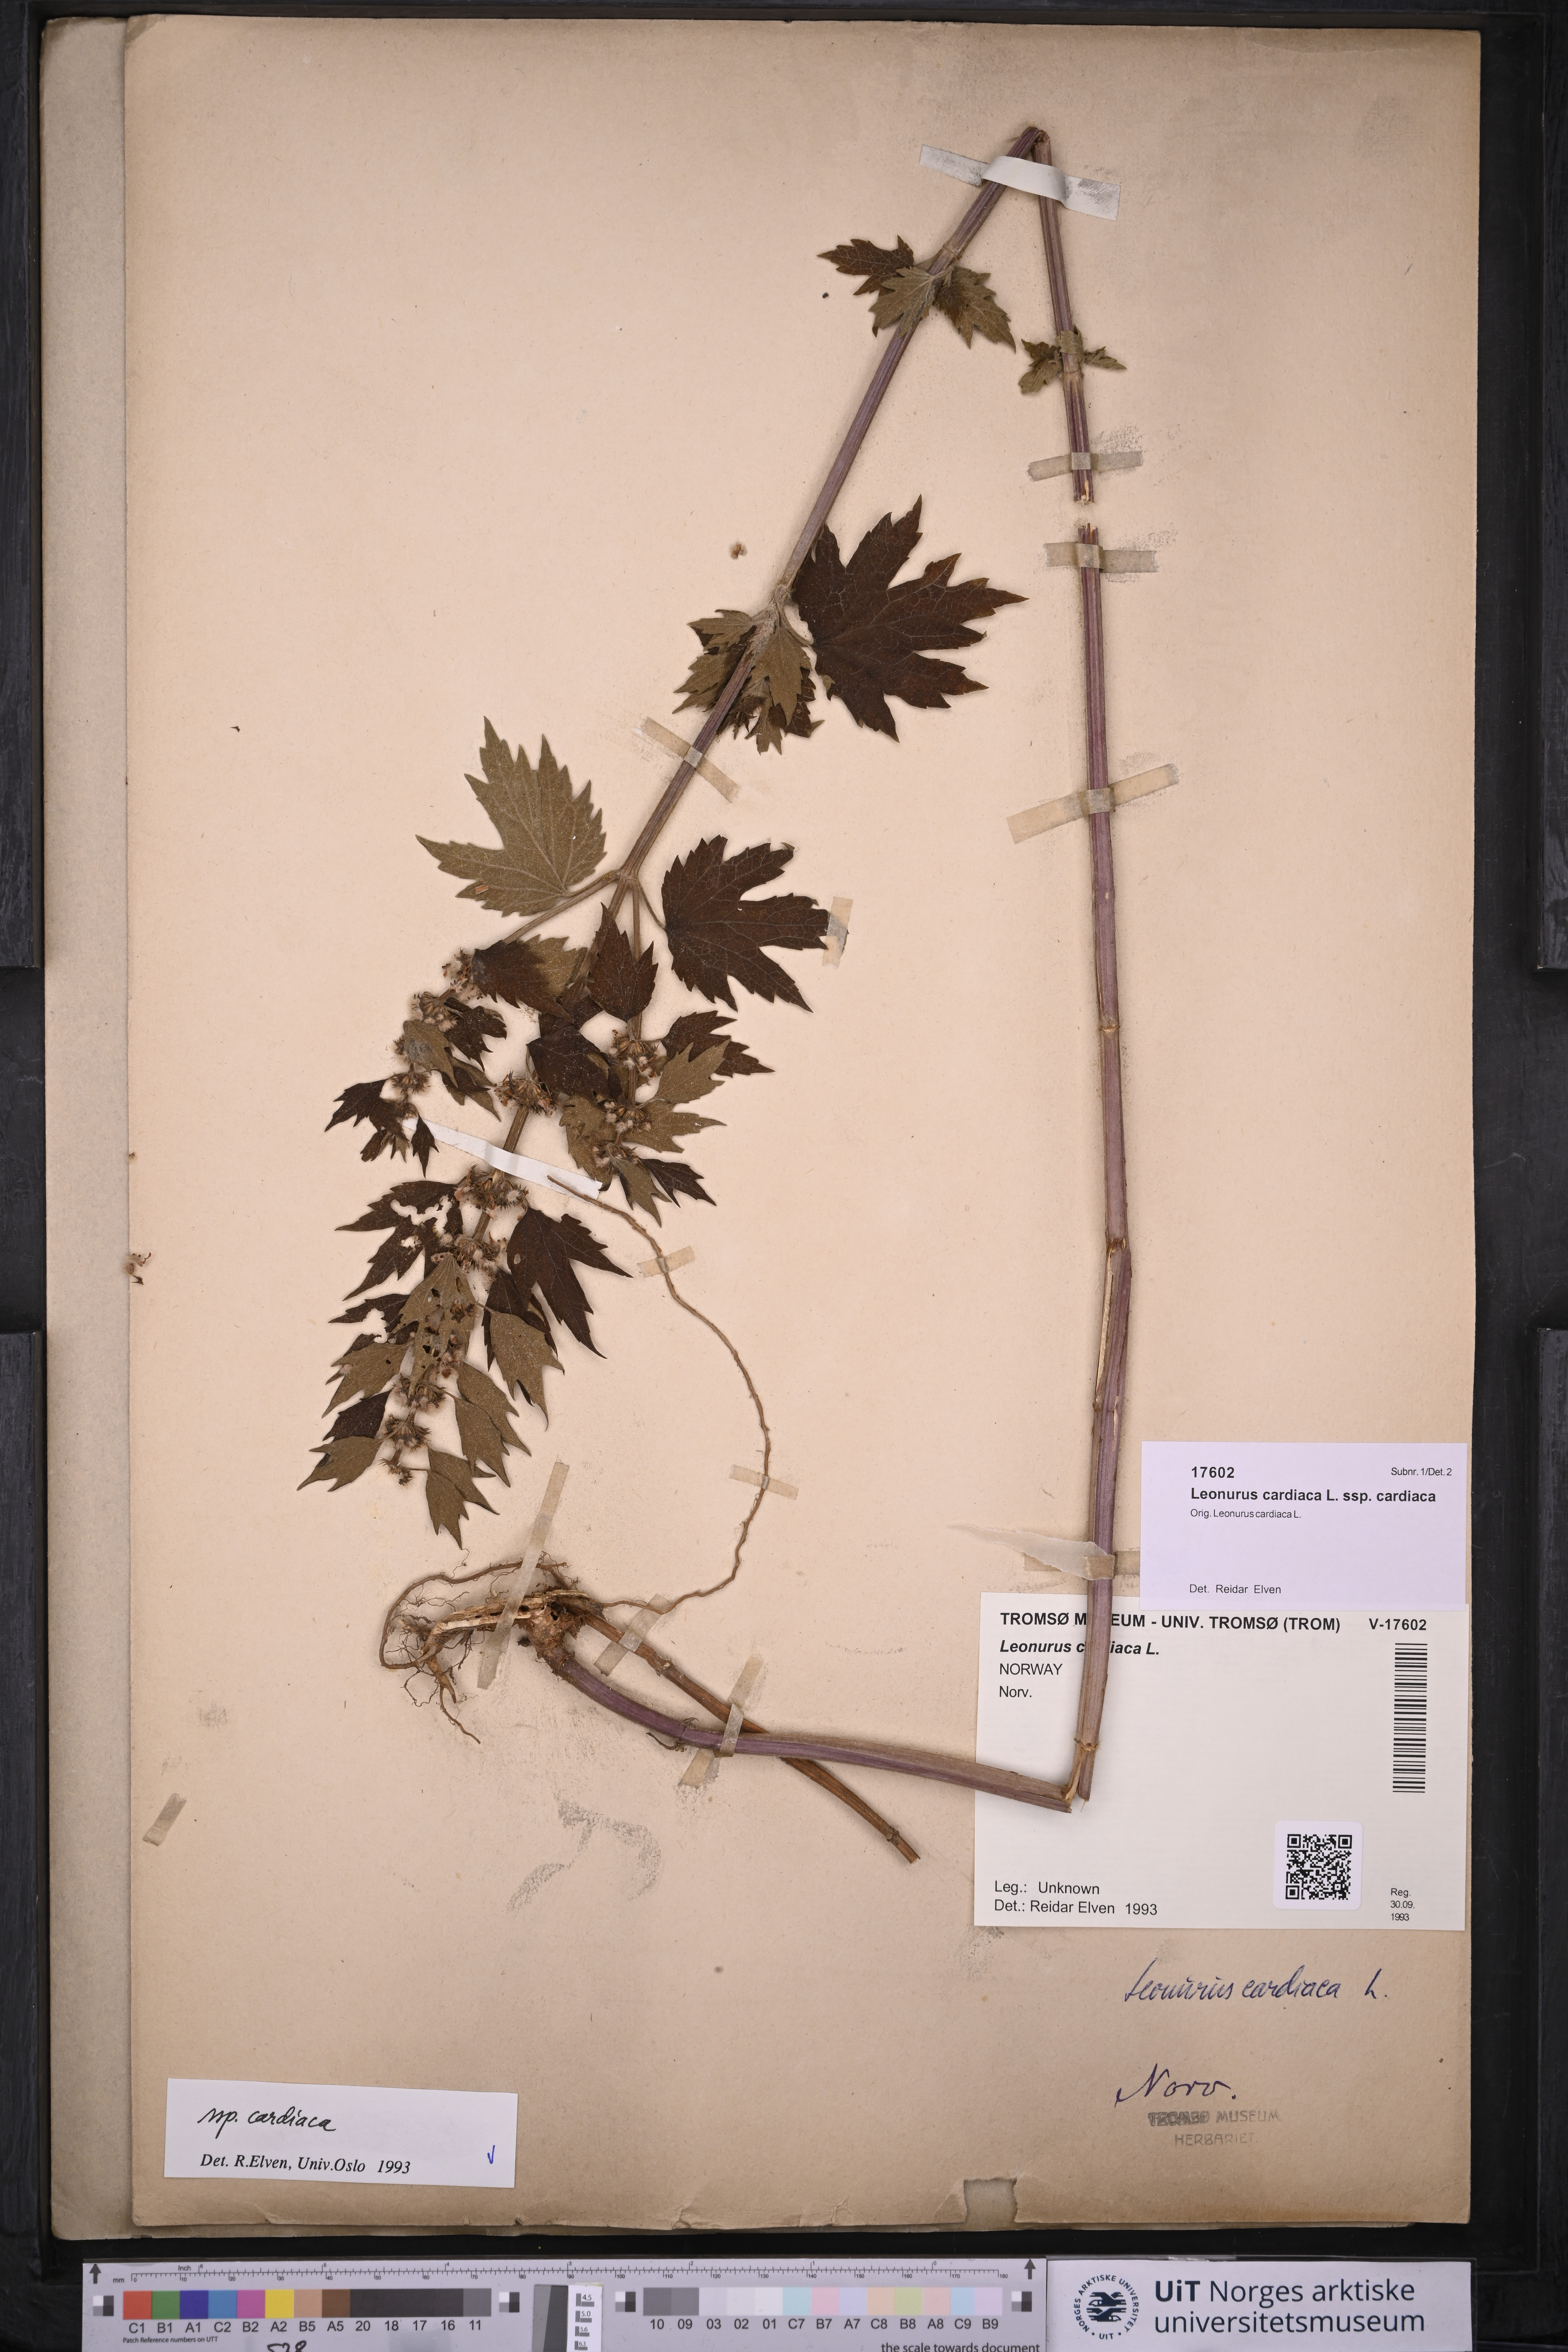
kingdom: Plantae
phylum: Tracheophyta
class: Magnoliopsida
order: Lamiales
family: Lamiaceae
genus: Leonurus
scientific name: Leonurus cardiaca
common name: Motherwort
